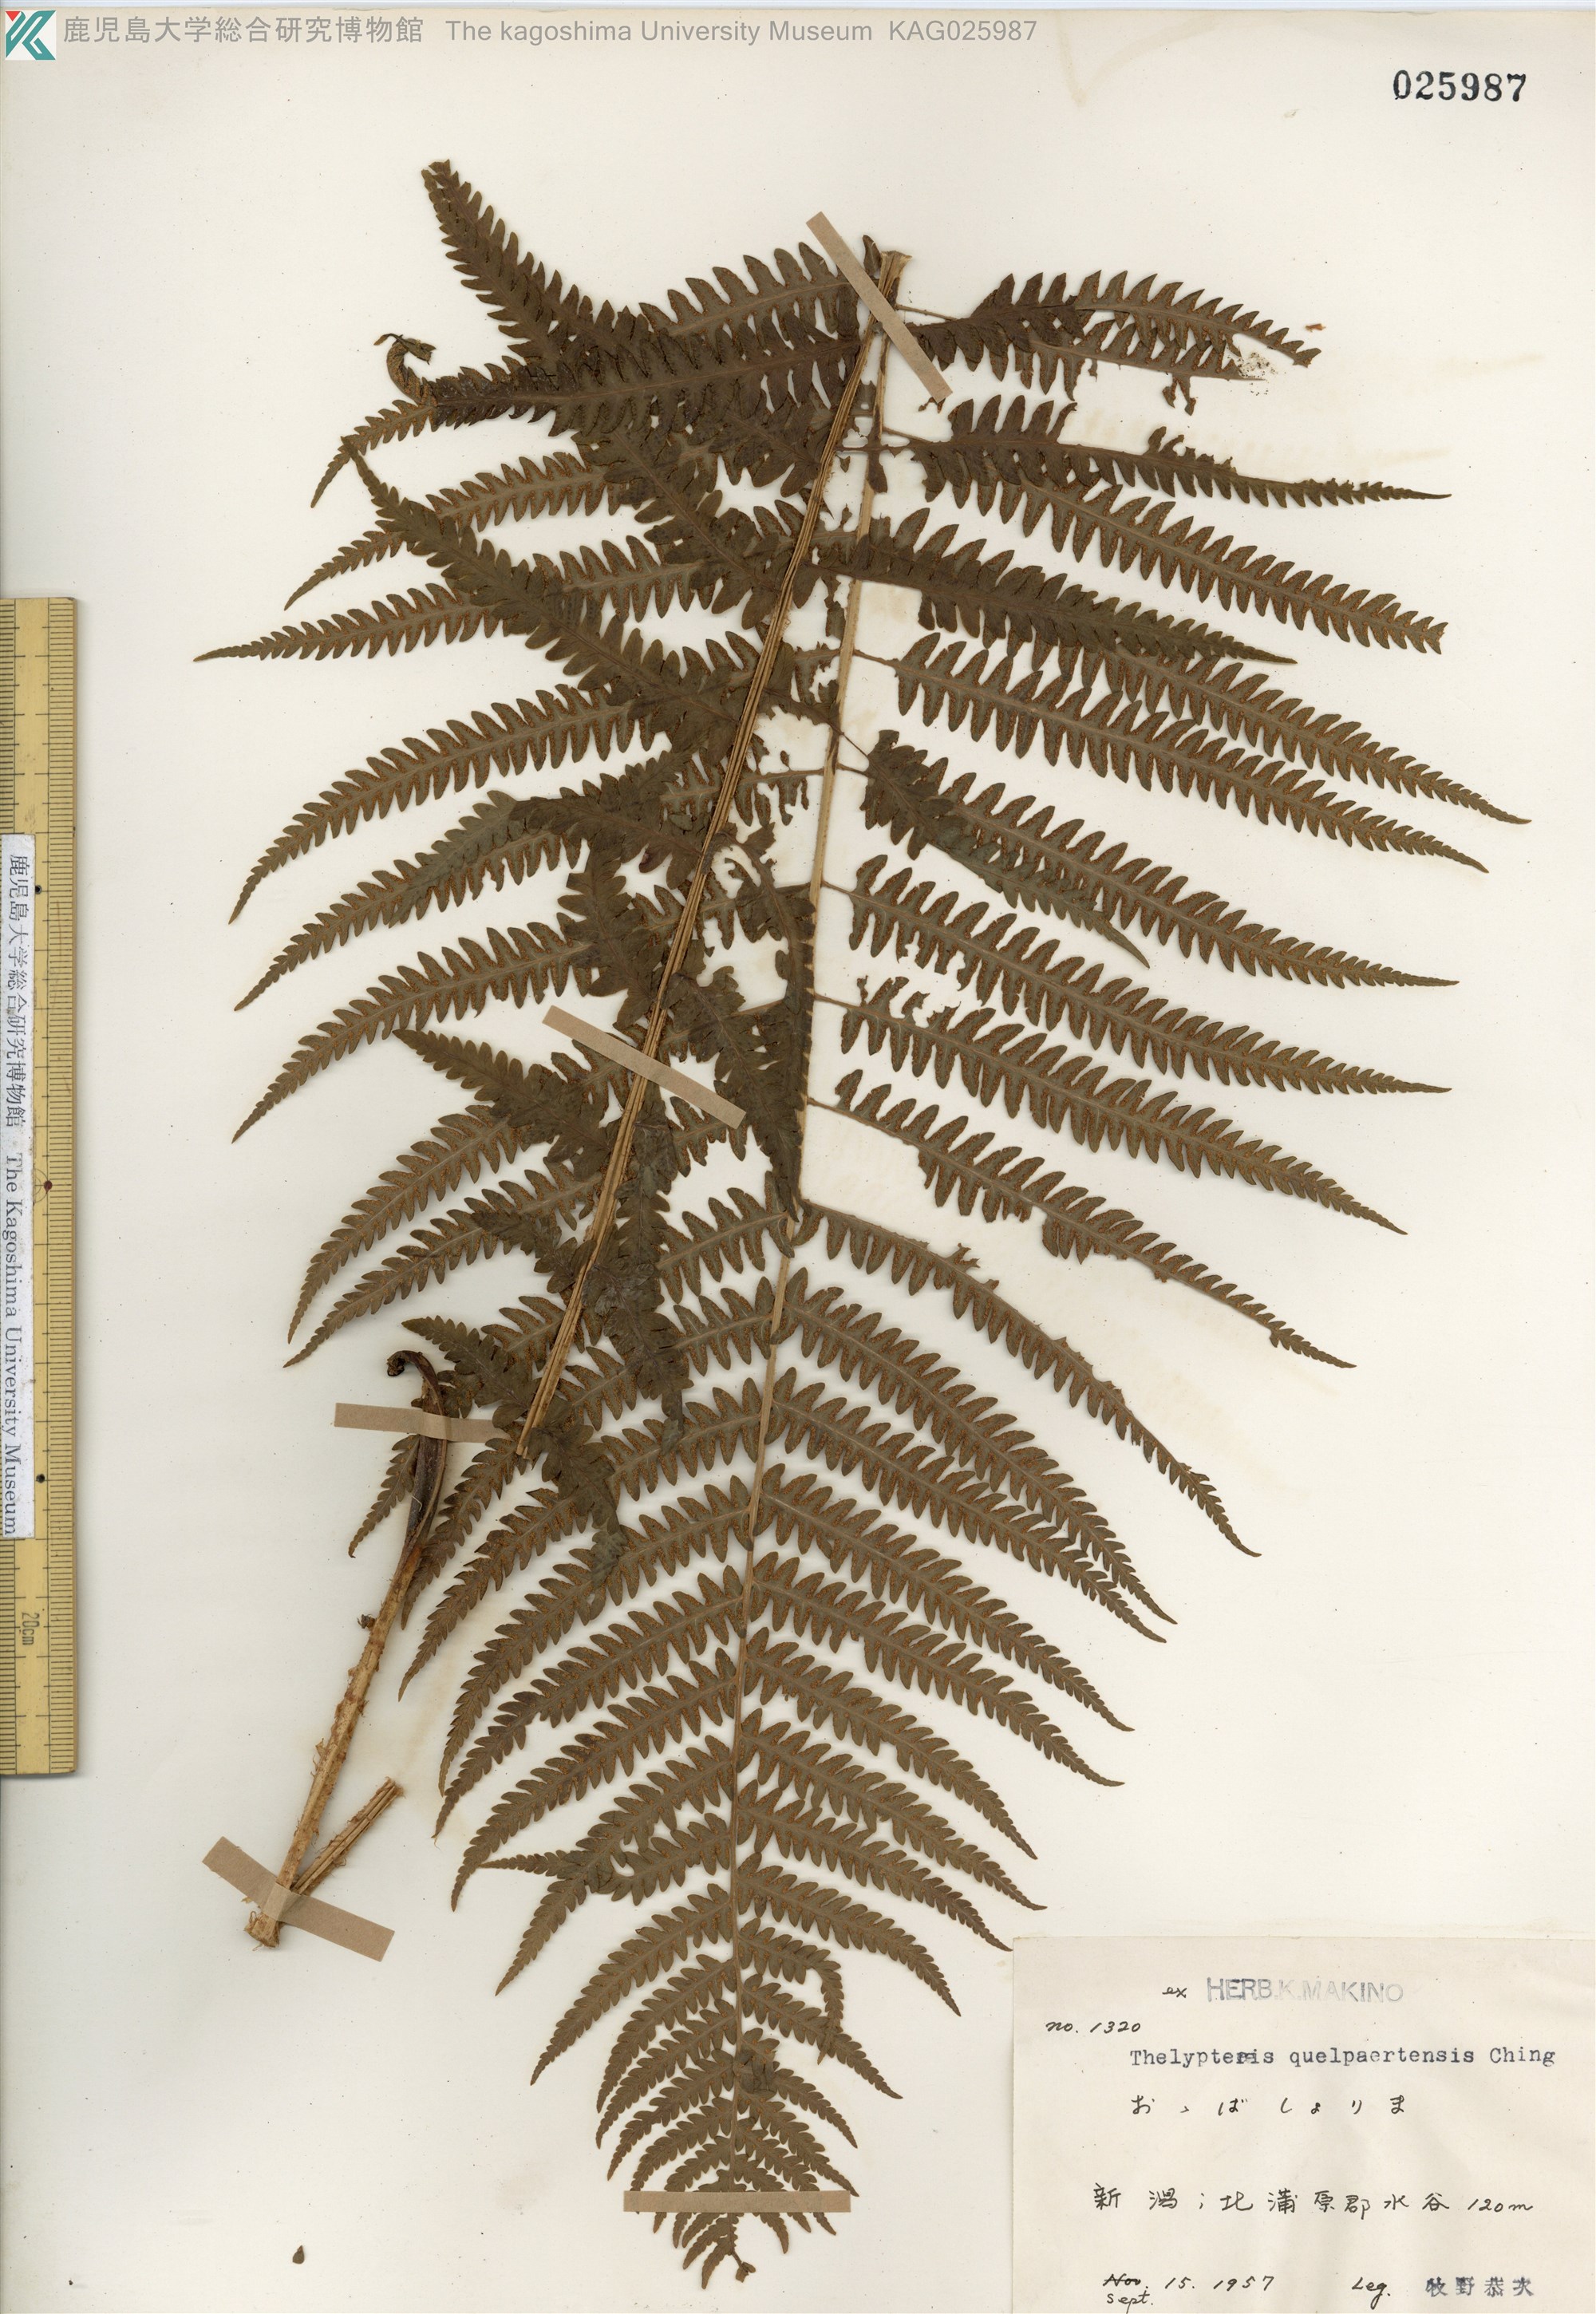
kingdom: Plantae
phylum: Tracheophyta
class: Polypodiopsida
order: Polypodiales
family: Thelypteridaceae
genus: Oreopteris
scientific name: Oreopteris quelpartensis
